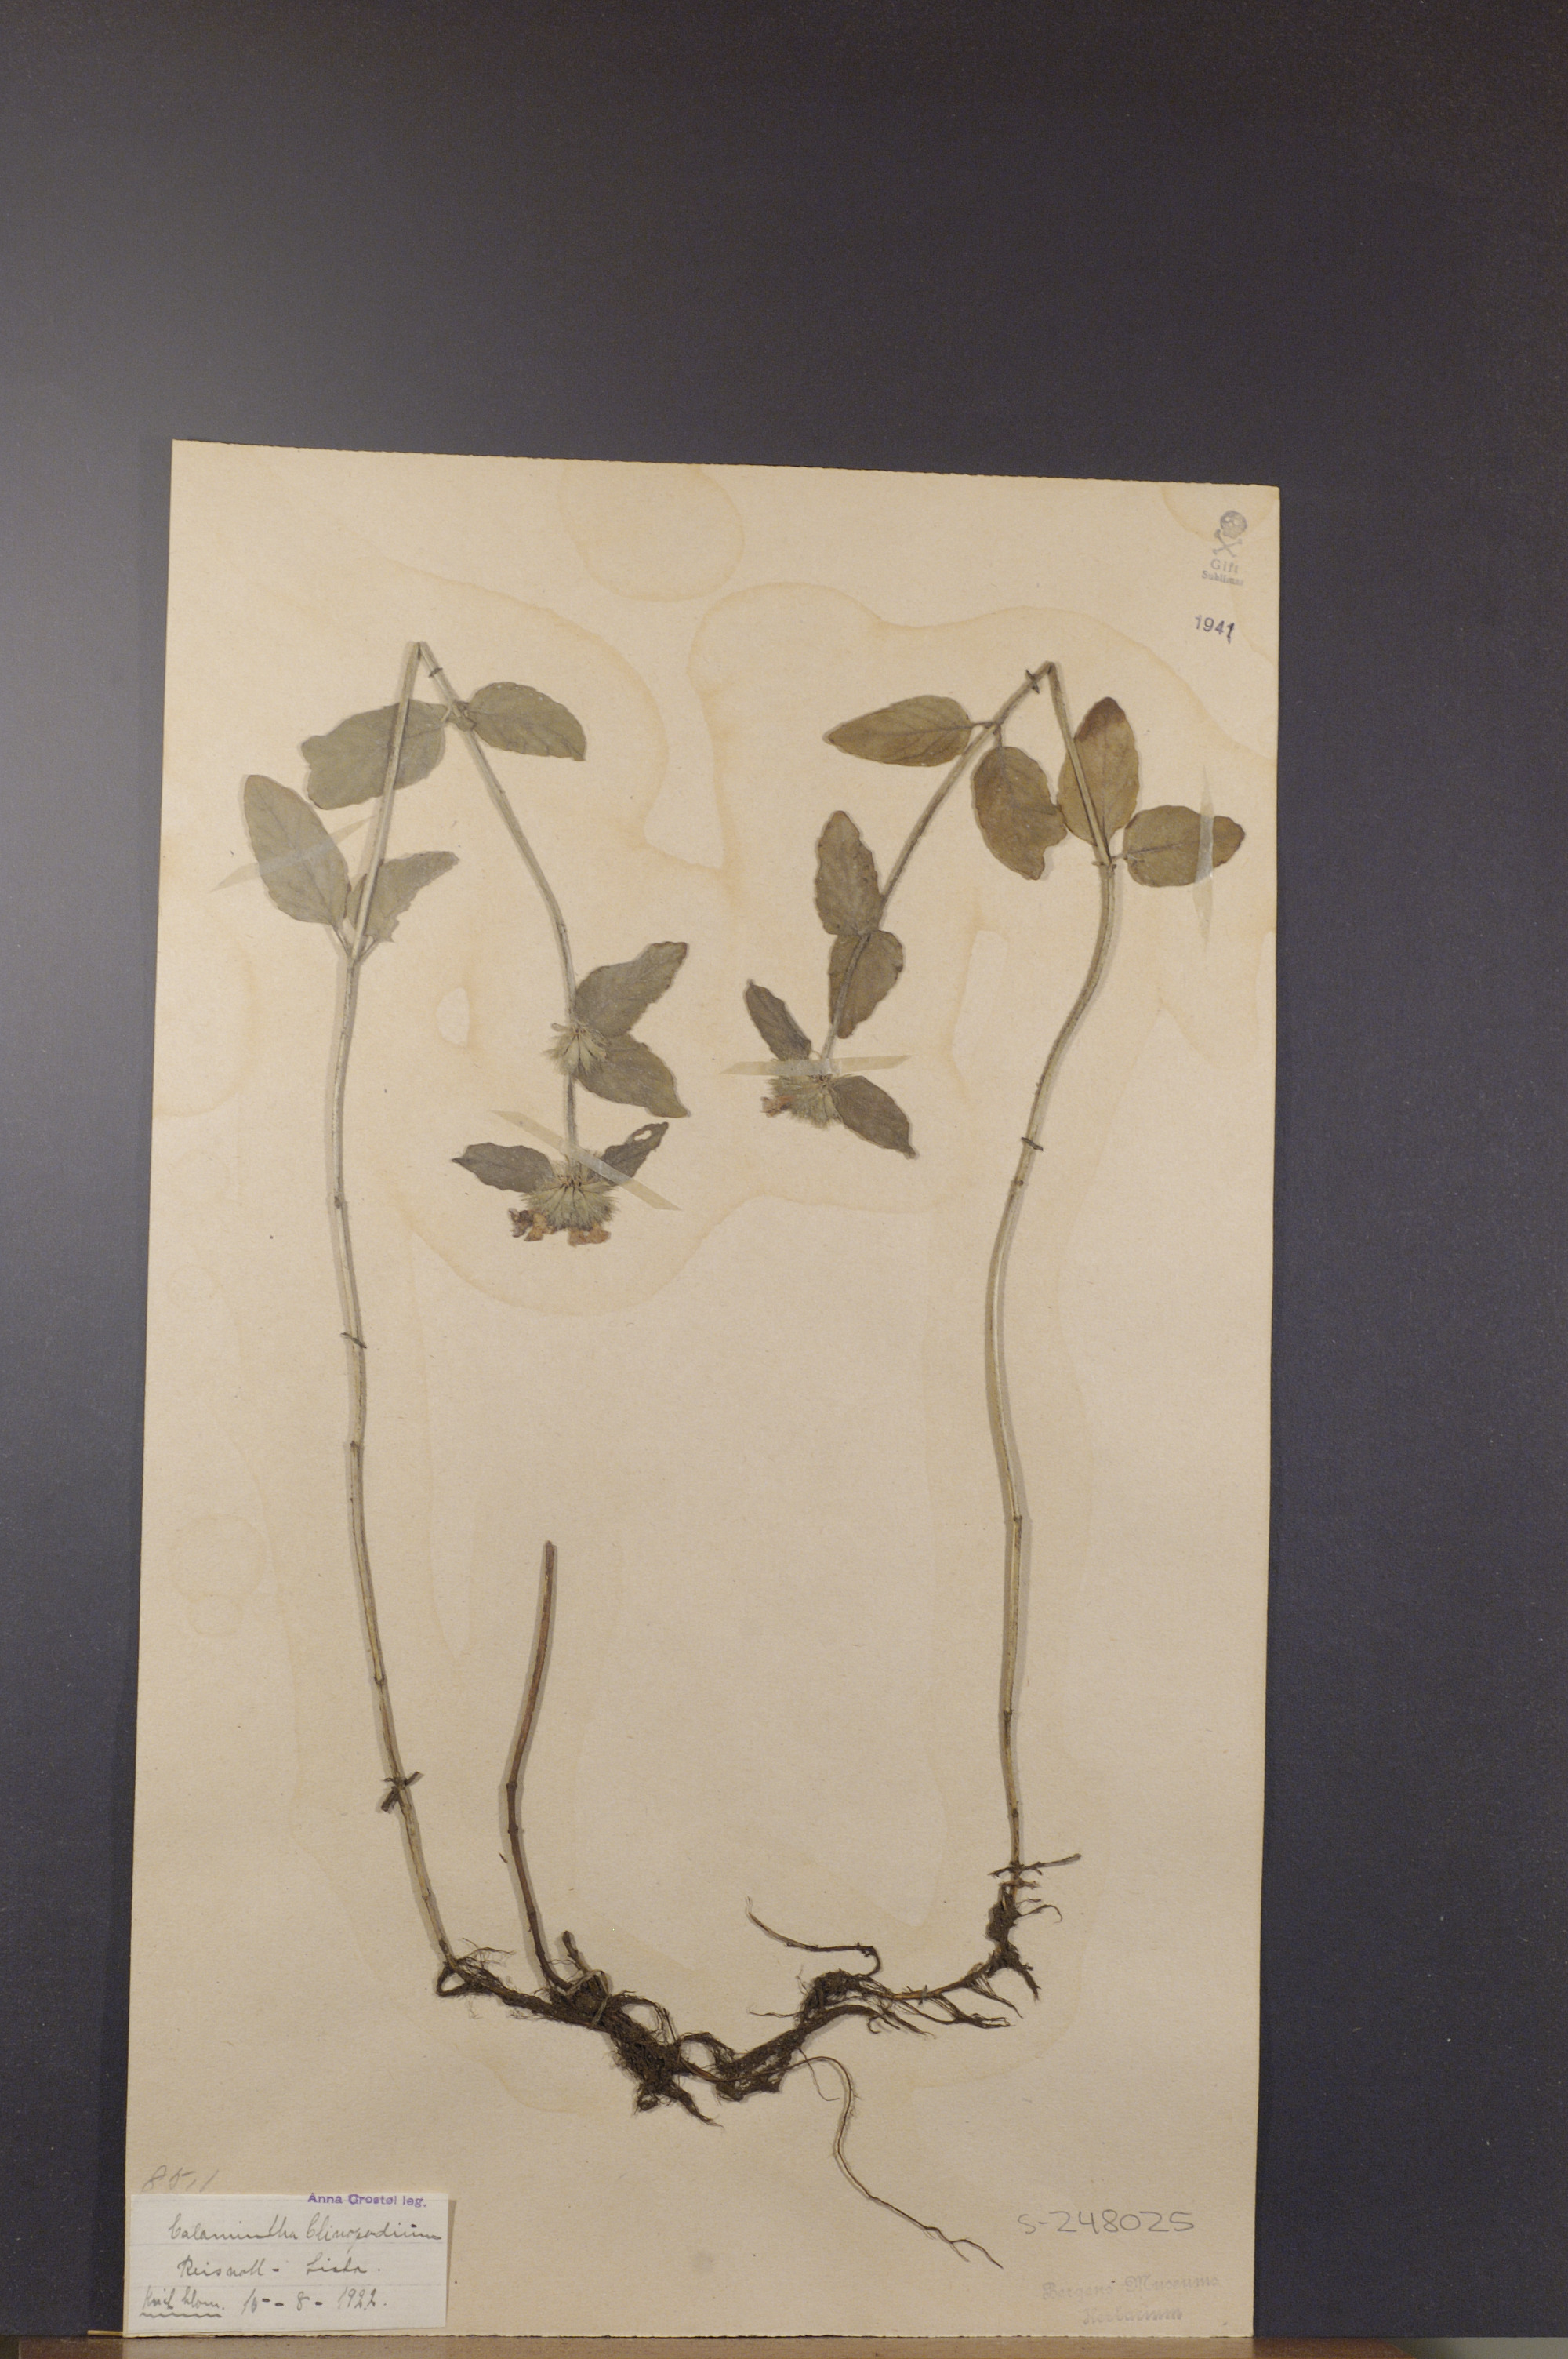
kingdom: Plantae
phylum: Tracheophyta
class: Magnoliopsida
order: Lamiales
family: Lamiaceae
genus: Clinopodium
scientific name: Clinopodium vulgare
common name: Wild basil
